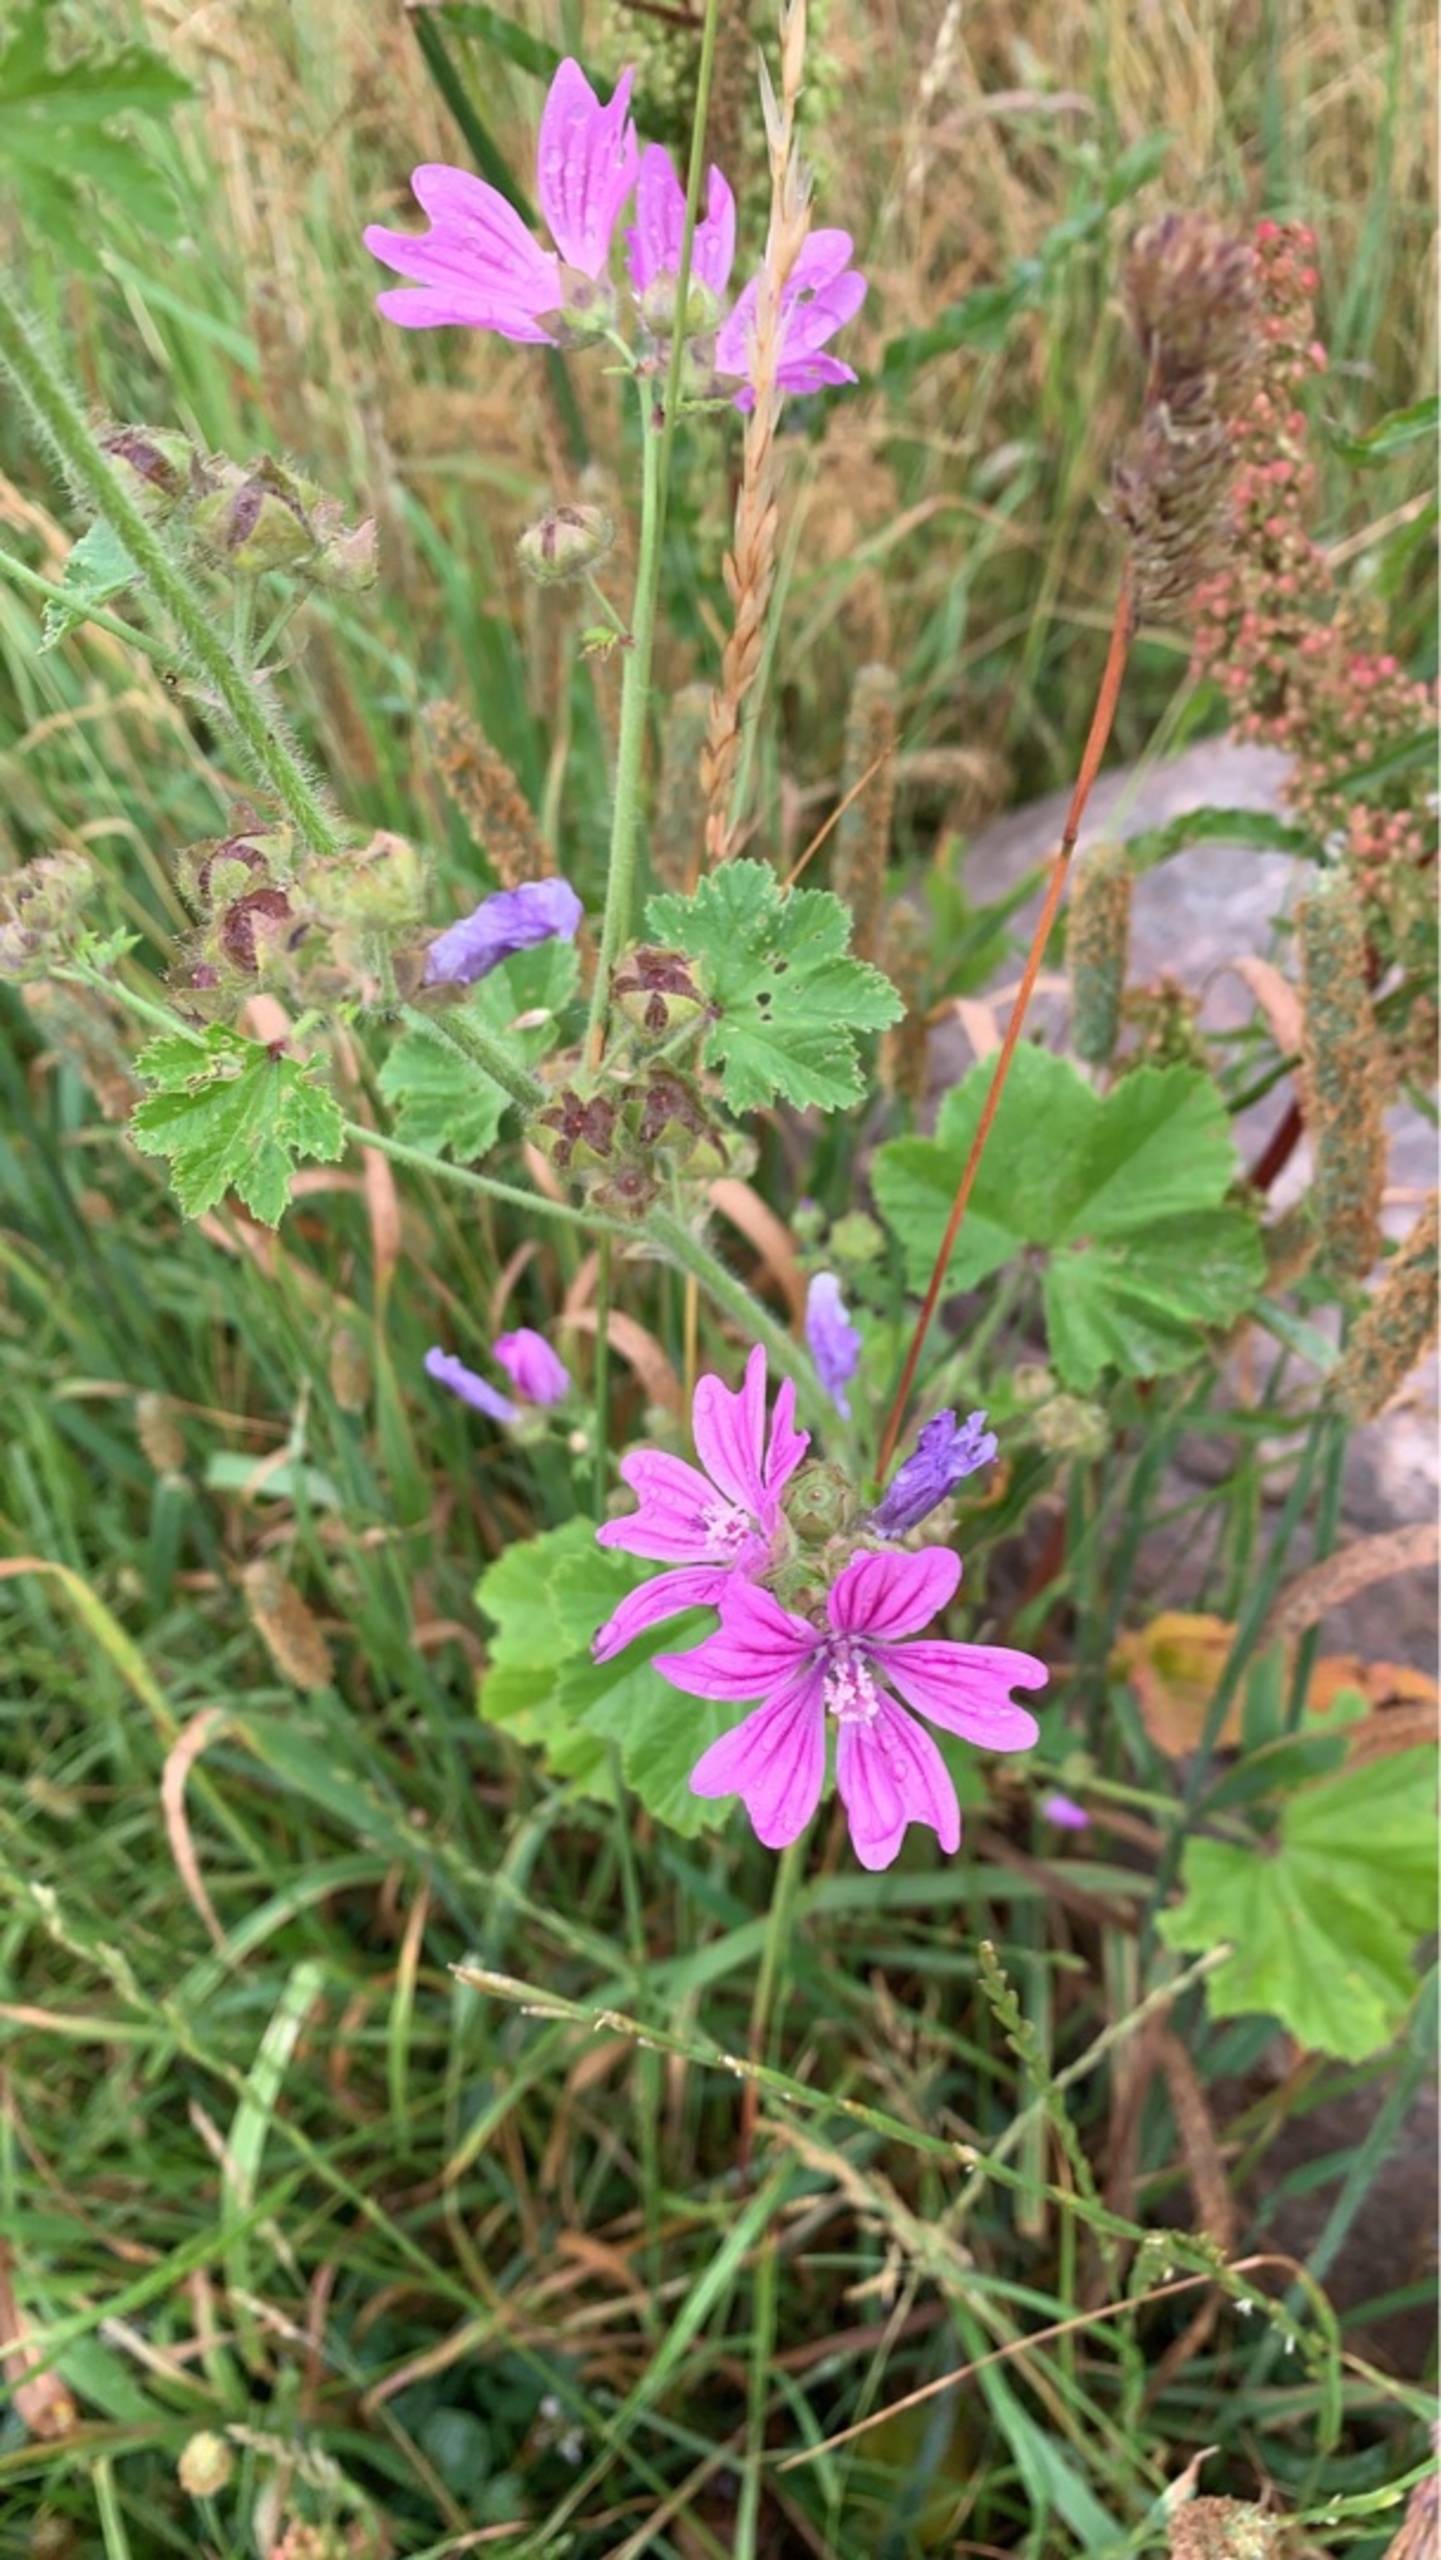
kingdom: Plantae
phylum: Tracheophyta
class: Magnoliopsida
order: Malvales
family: Malvaceae
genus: Malva
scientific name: Malva sylvestris
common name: Almindelig katost
